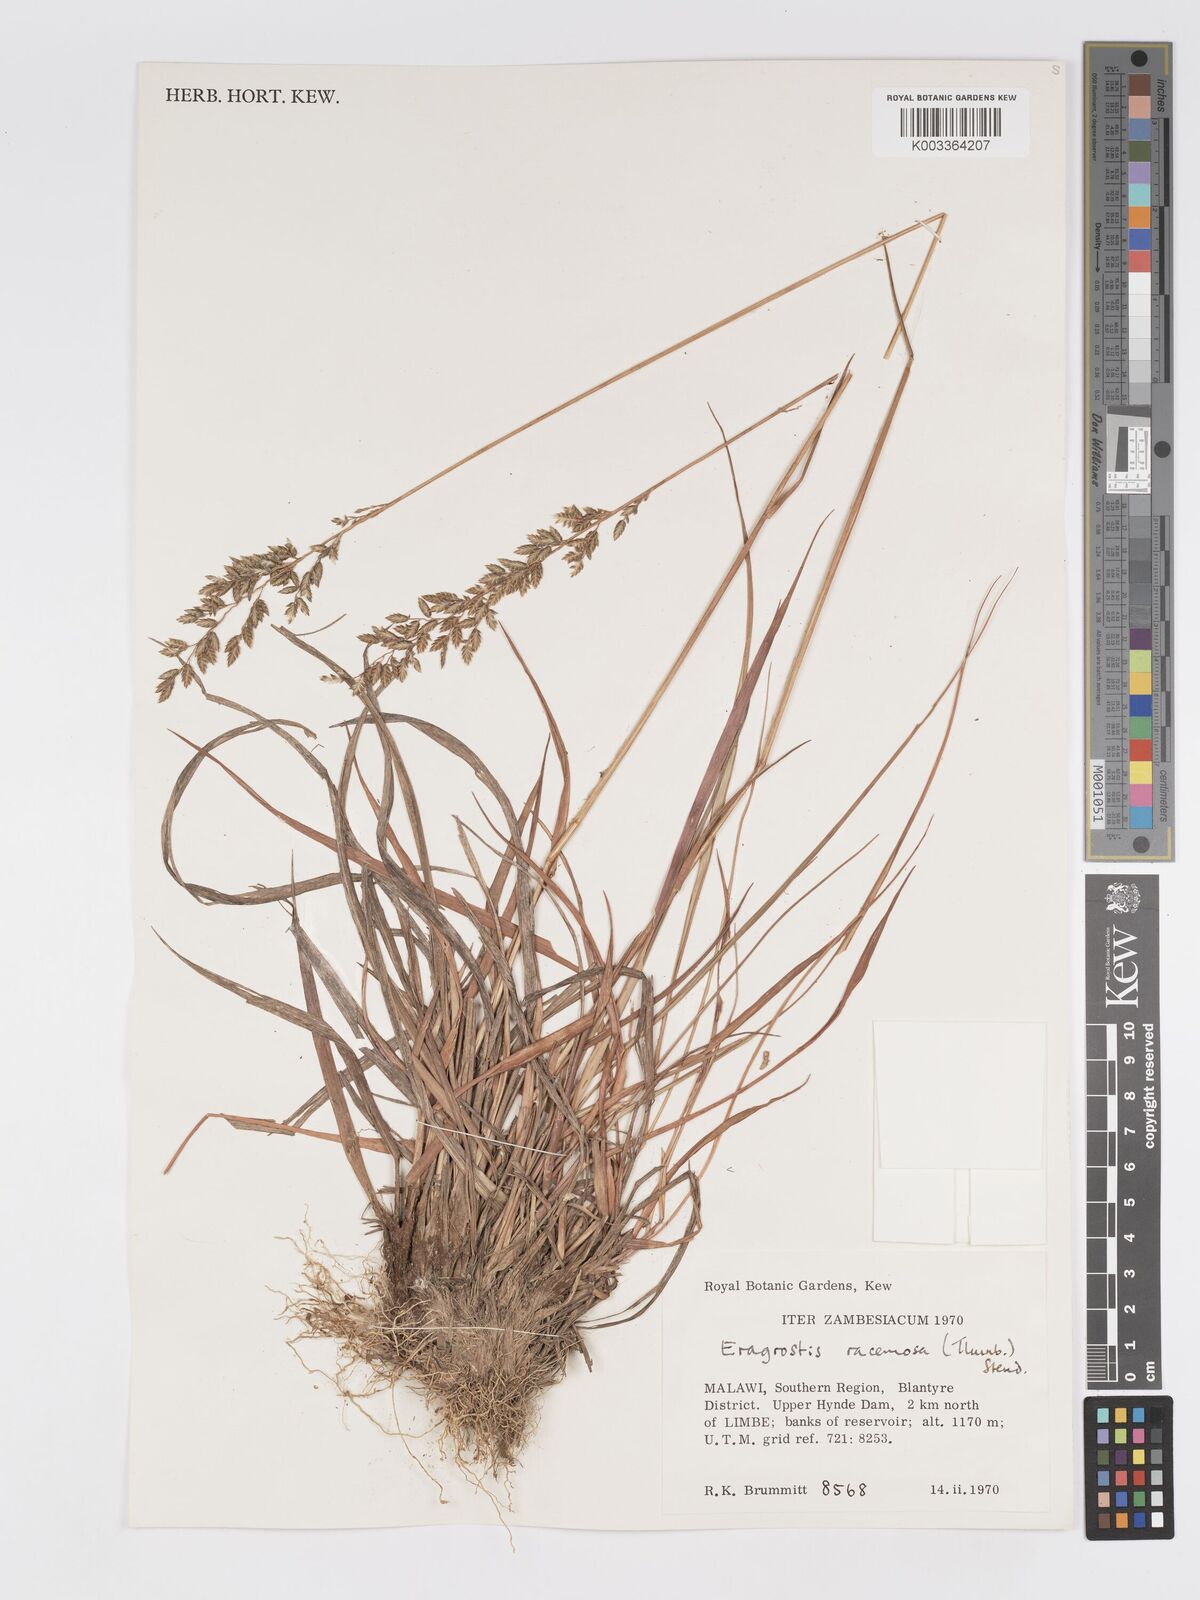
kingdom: Plantae
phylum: Tracheophyta
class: Liliopsida
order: Poales
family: Poaceae
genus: Eragrostis
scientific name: Eragrostis racemosa
